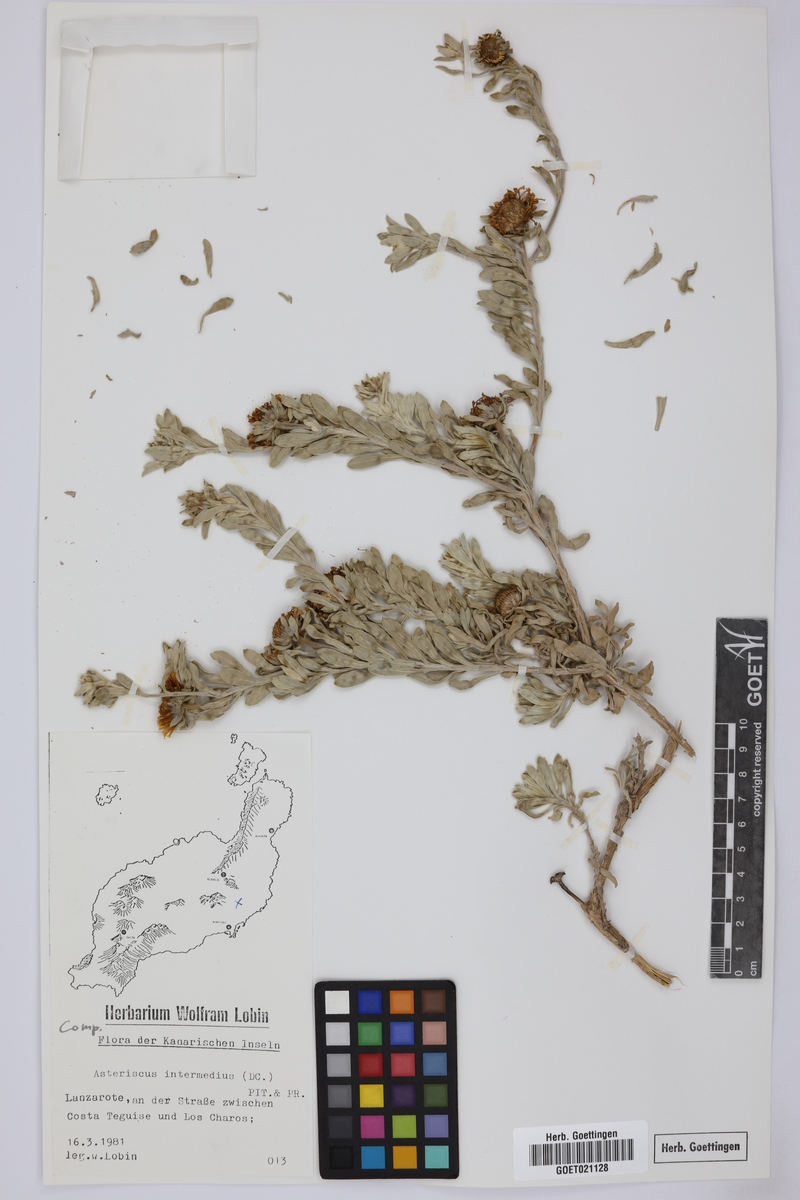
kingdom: Plantae
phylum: Tracheophyta
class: Magnoliopsida
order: Asterales
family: Asteraceae
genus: Asteriscus
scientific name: Asteriscus intermedius
